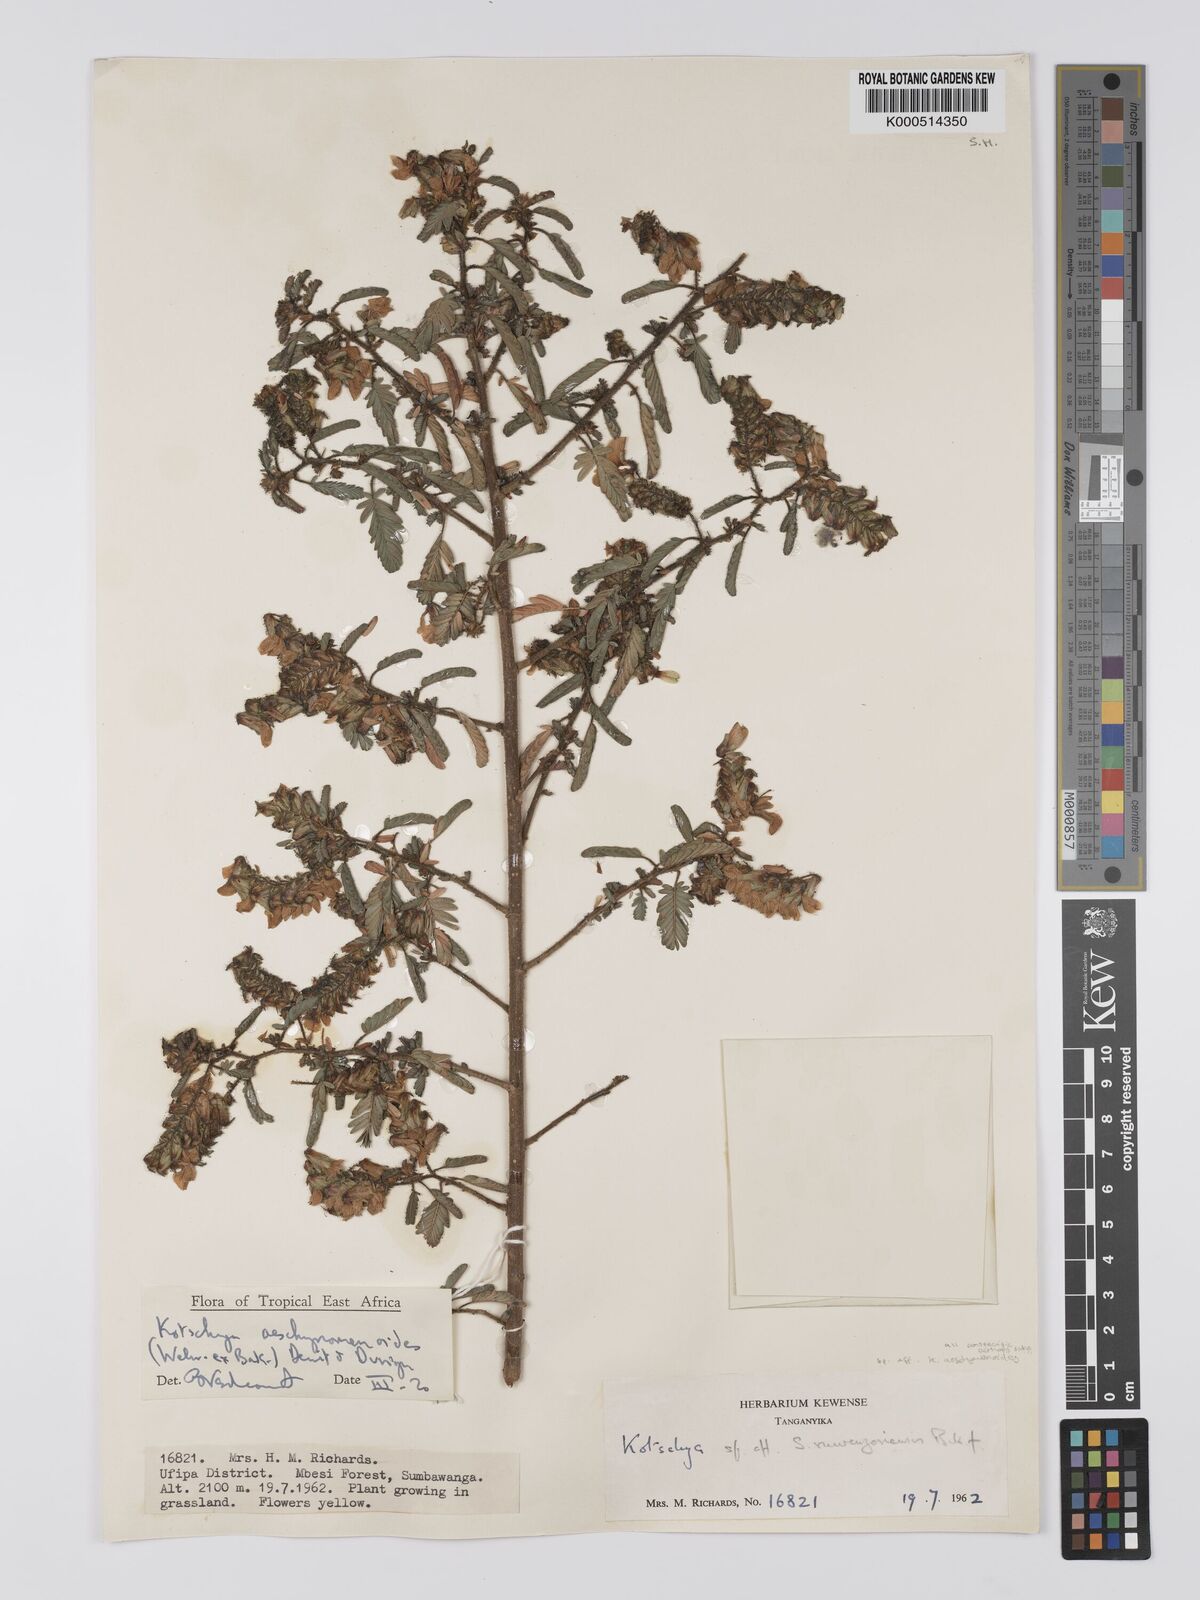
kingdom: Plantae
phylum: Tracheophyta
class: Magnoliopsida
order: Fabales
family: Fabaceae
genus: Kotschya
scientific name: Kotschya aeschynomenoides
